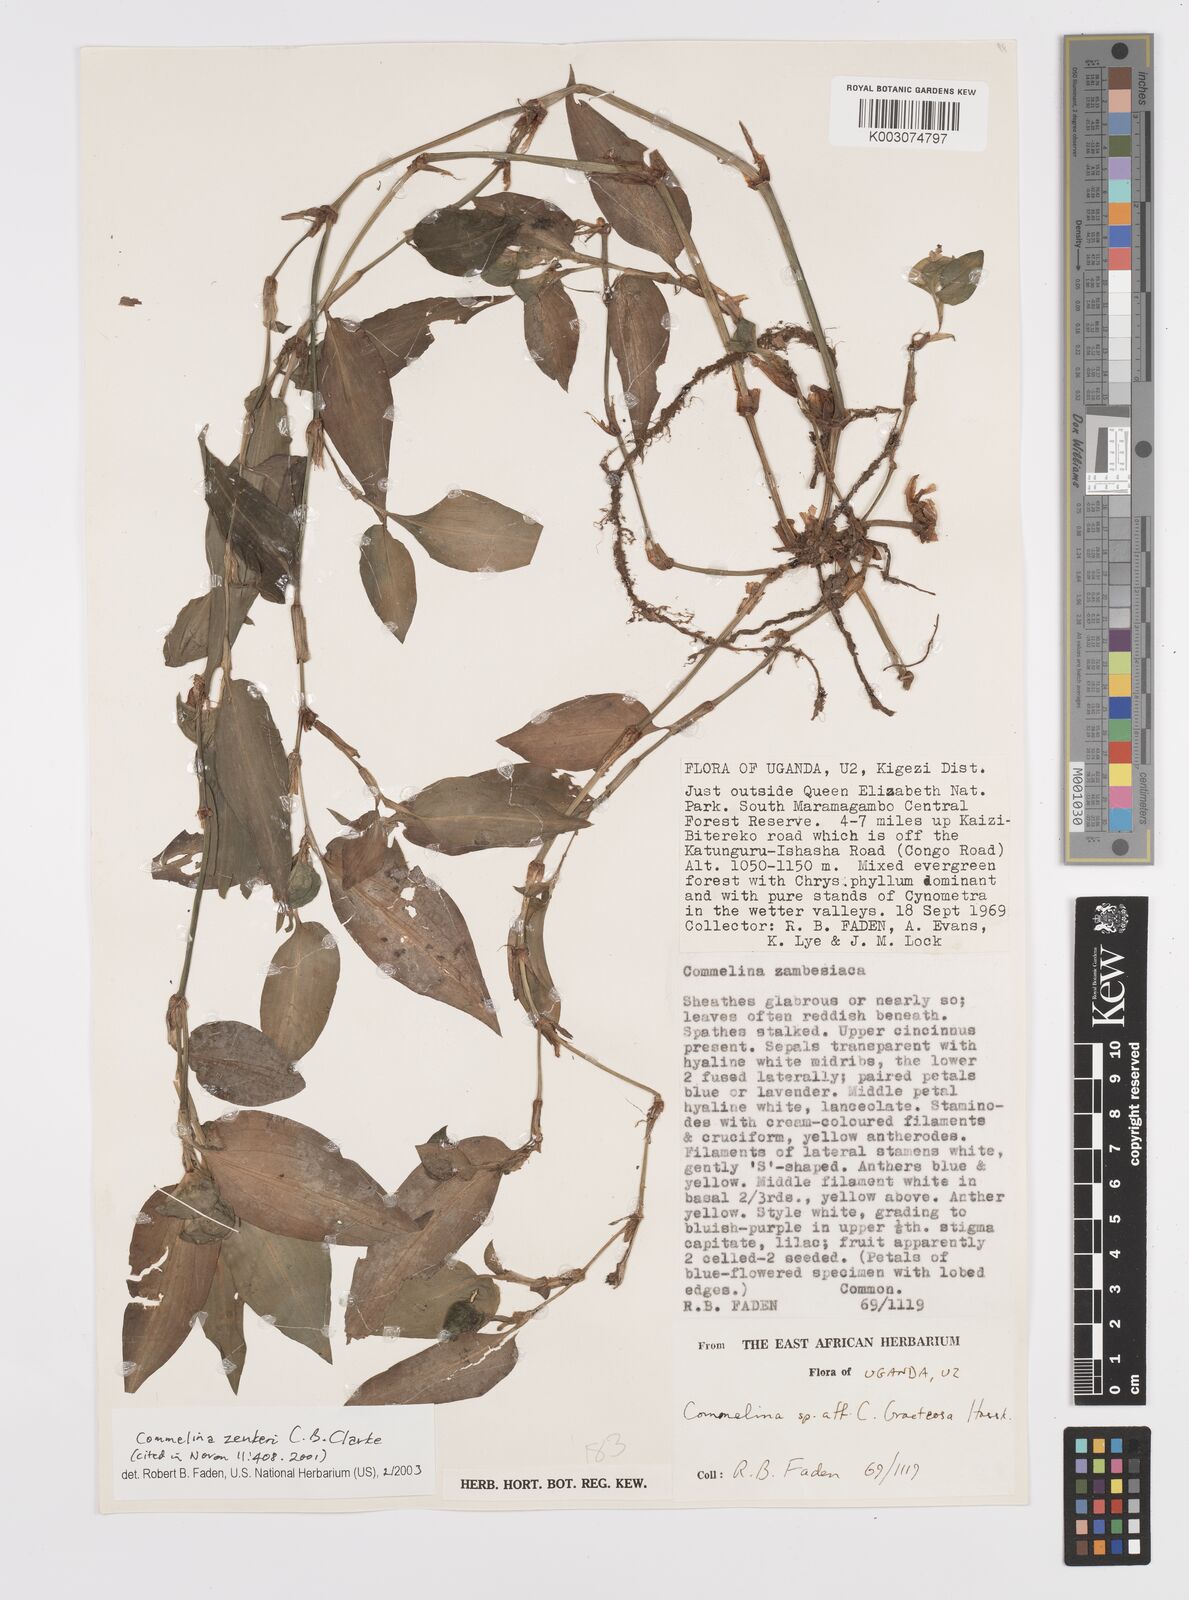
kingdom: Plantae
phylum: Tracheophyta
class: Liliopsida
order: Commelinales
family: Commelinaceae
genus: Commelina
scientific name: Commelina zenkeri
